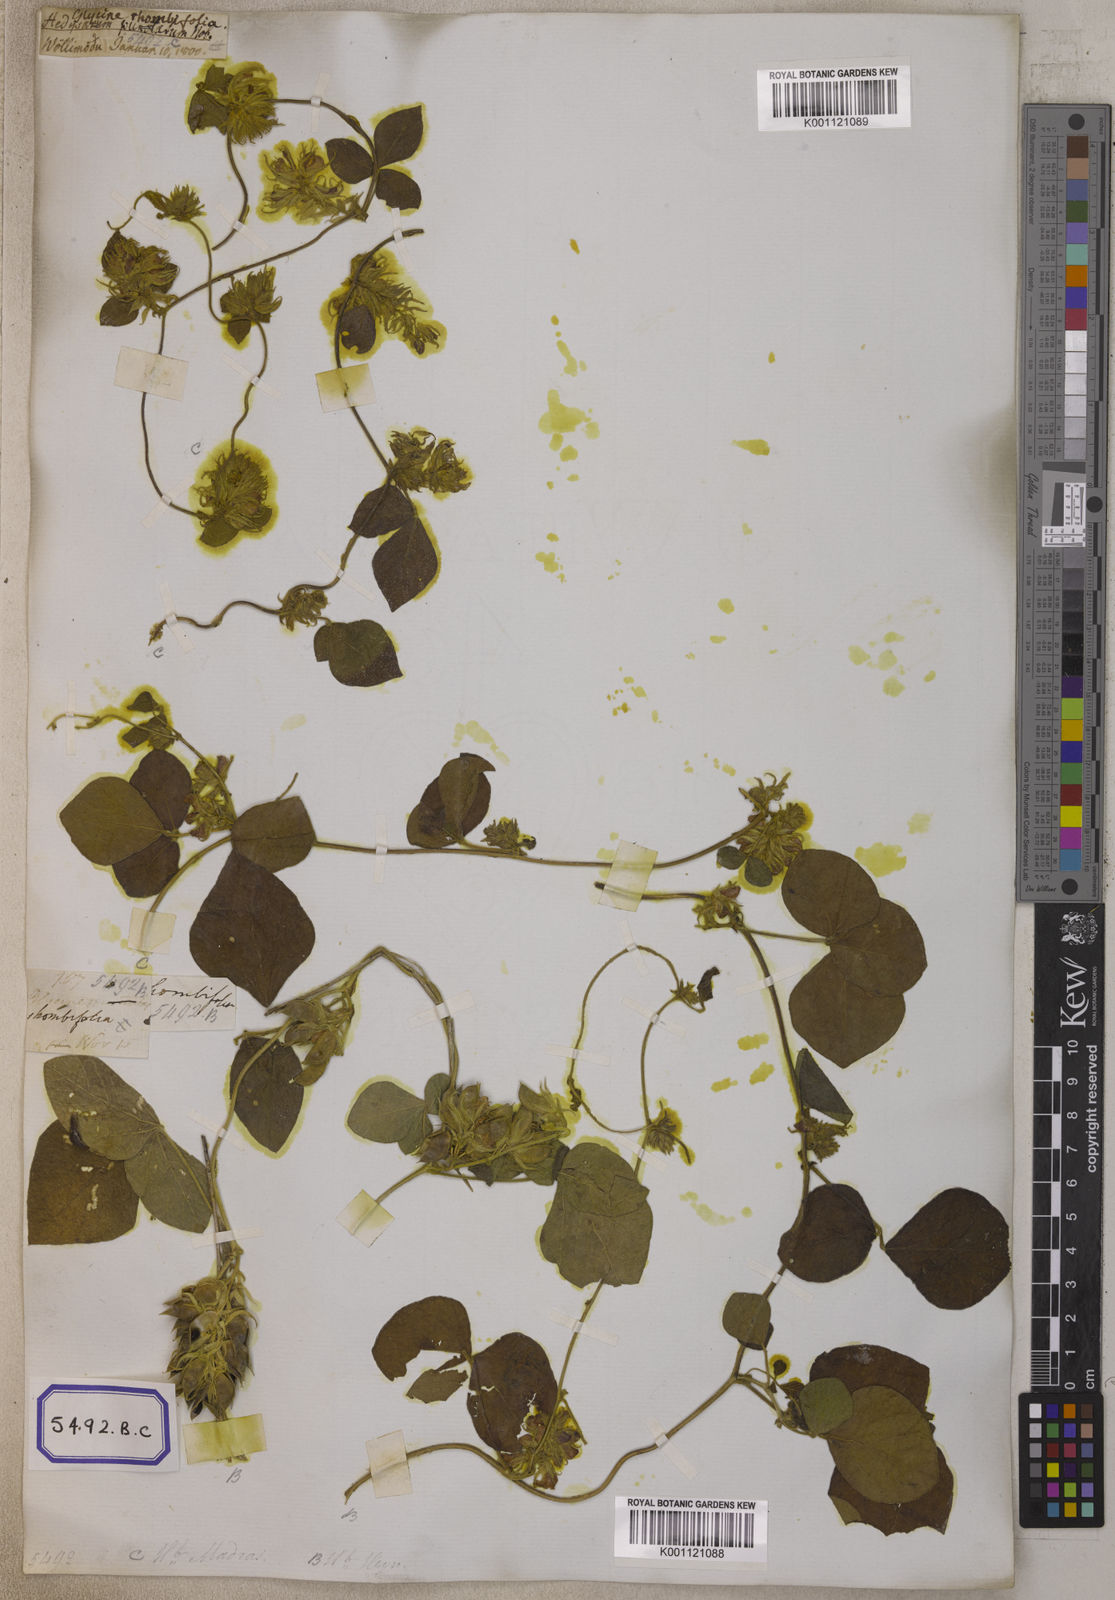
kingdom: Plantae
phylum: Tracheophyta
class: Magnoliopsida
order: Fabales
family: Fabaceae
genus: Rhynchosia
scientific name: Rhynchosia aurea
